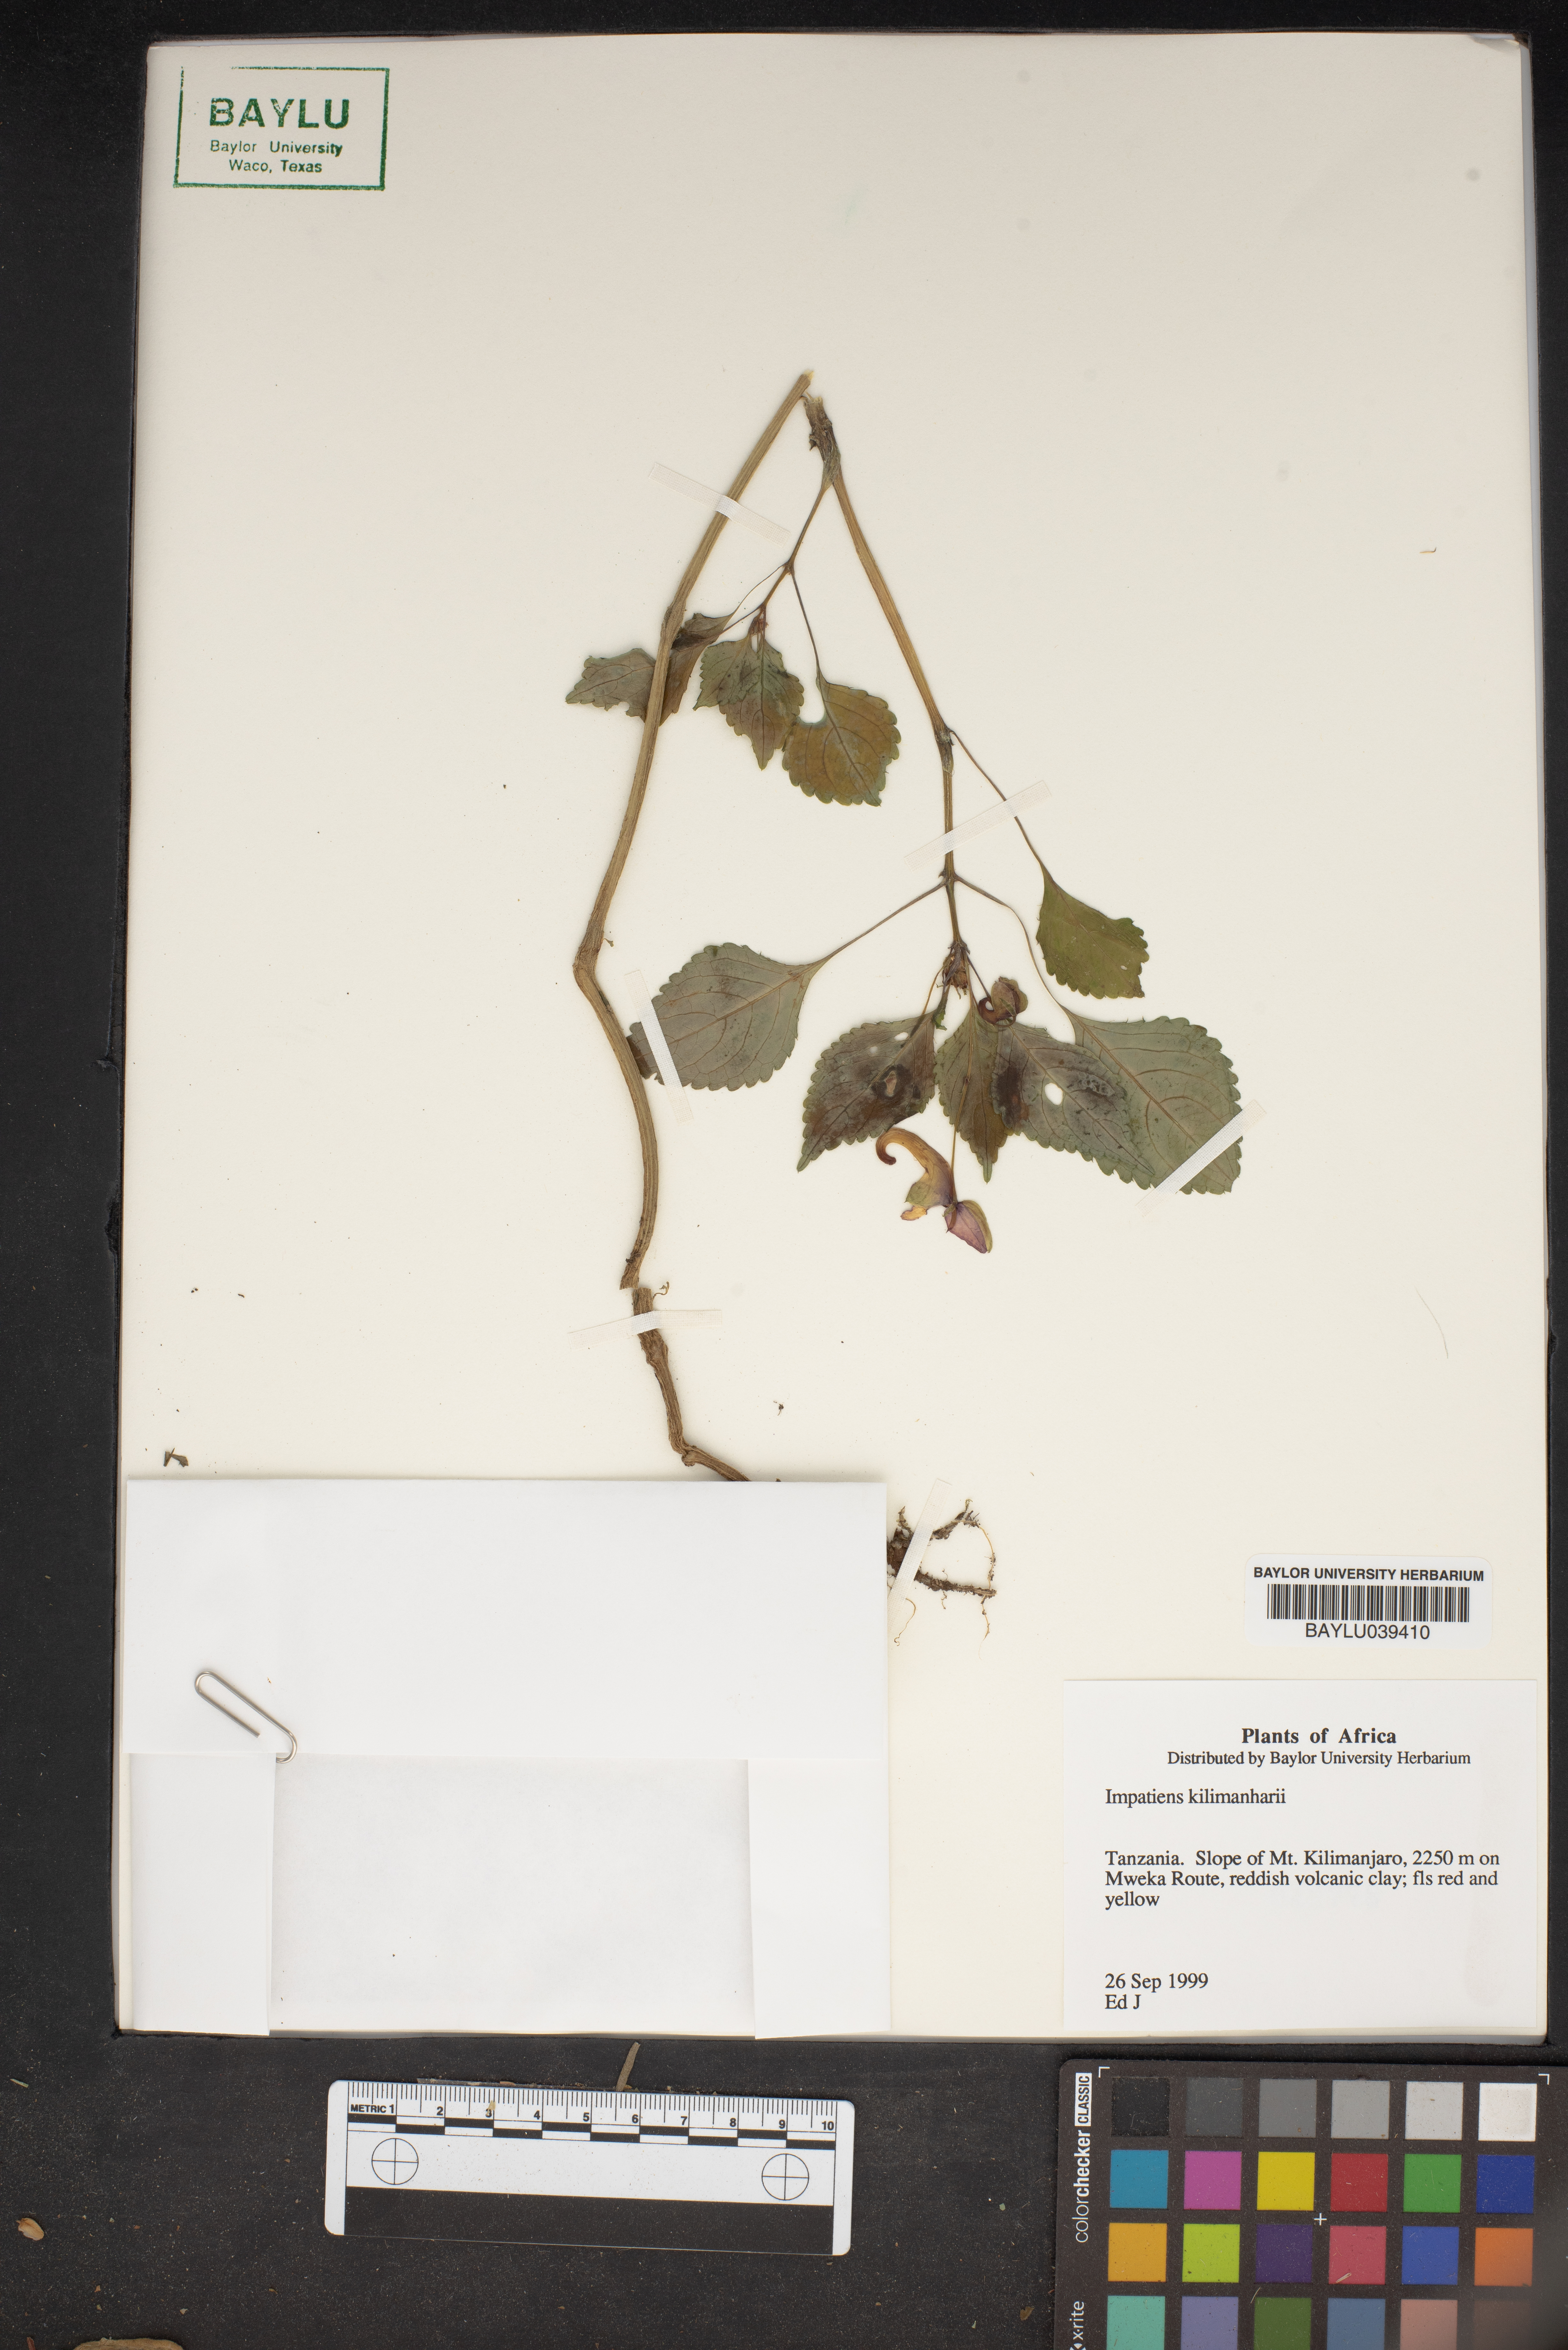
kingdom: Plantae
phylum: Tracheophyta
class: Magnoliopsida
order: Ericales
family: Balsaminaceae
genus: Impatiens
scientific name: Impatiens kilimanjari
